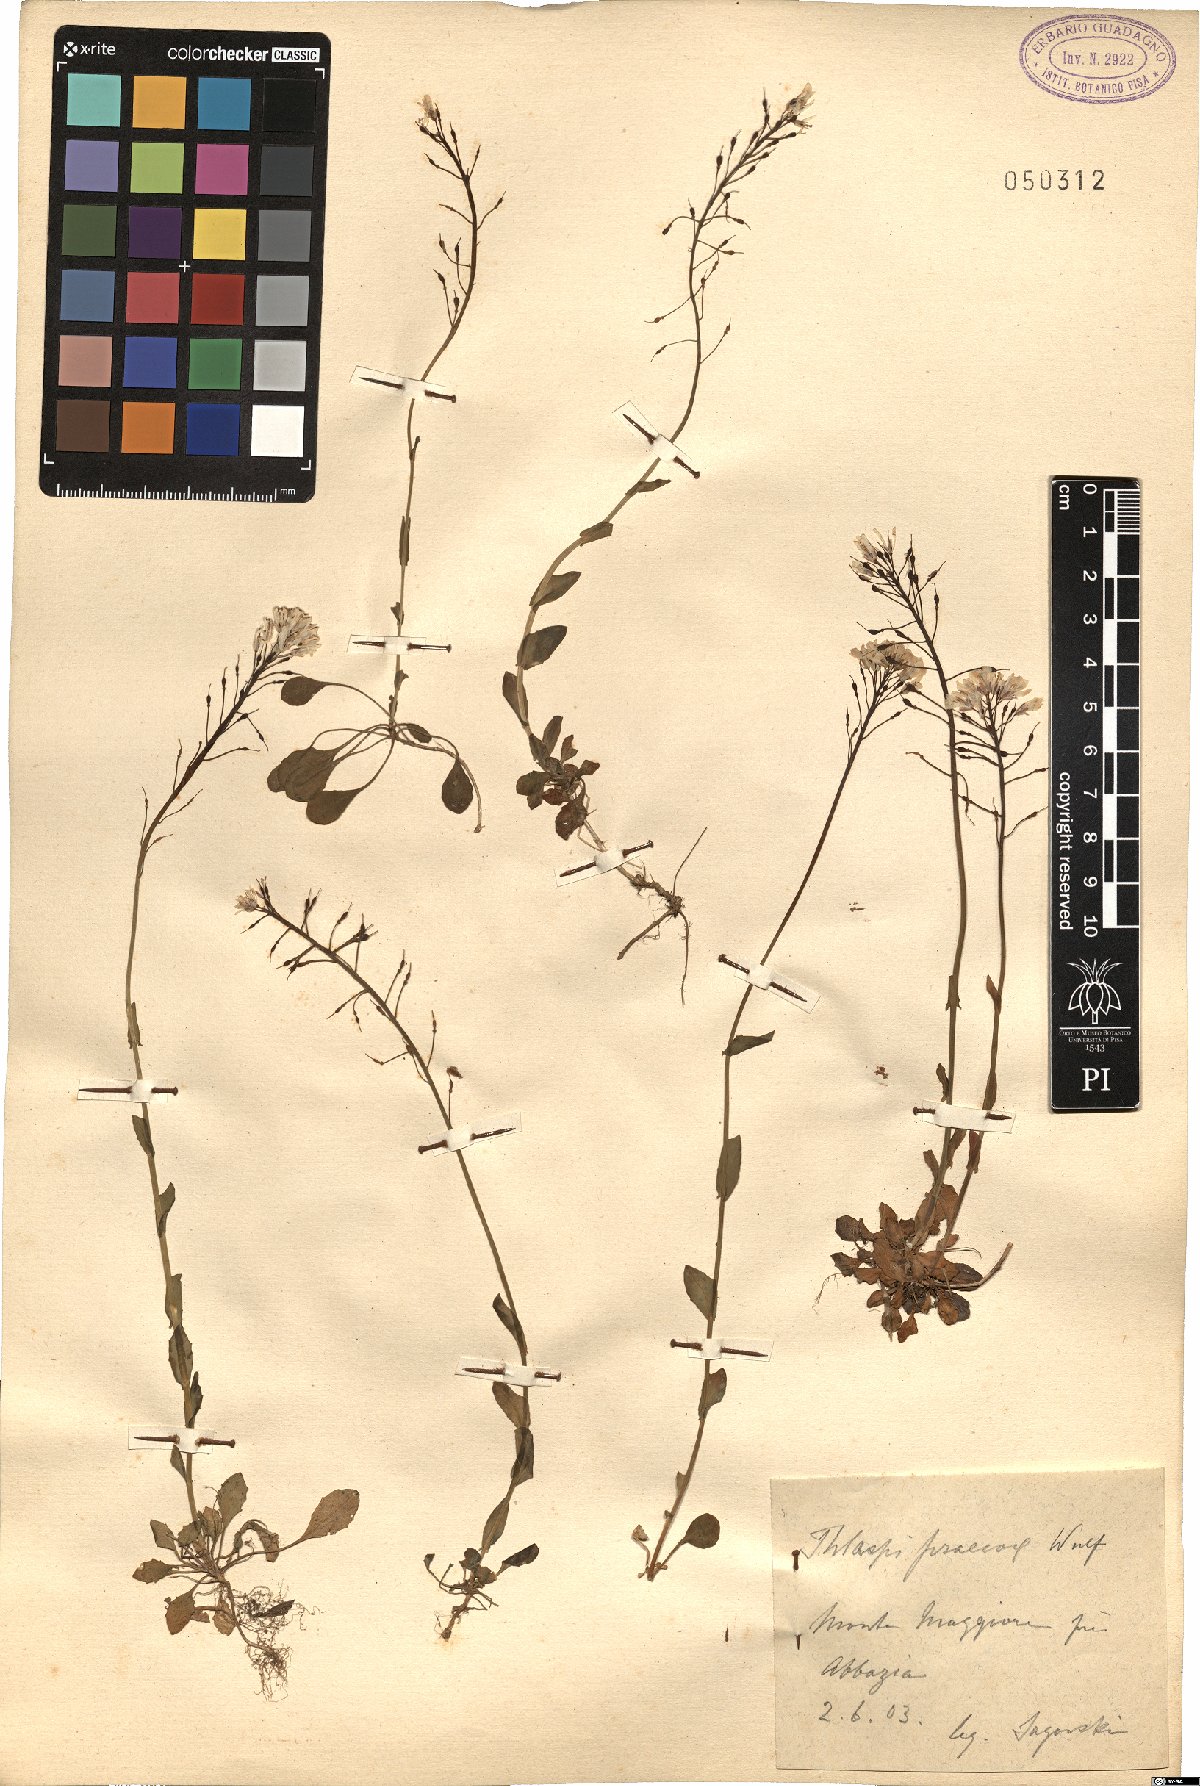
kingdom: Plantae
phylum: Tracheophyta
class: Magnoliopsida
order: Brassicales
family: Brassicaceae
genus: Noccaea
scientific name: Noccaea praecox
